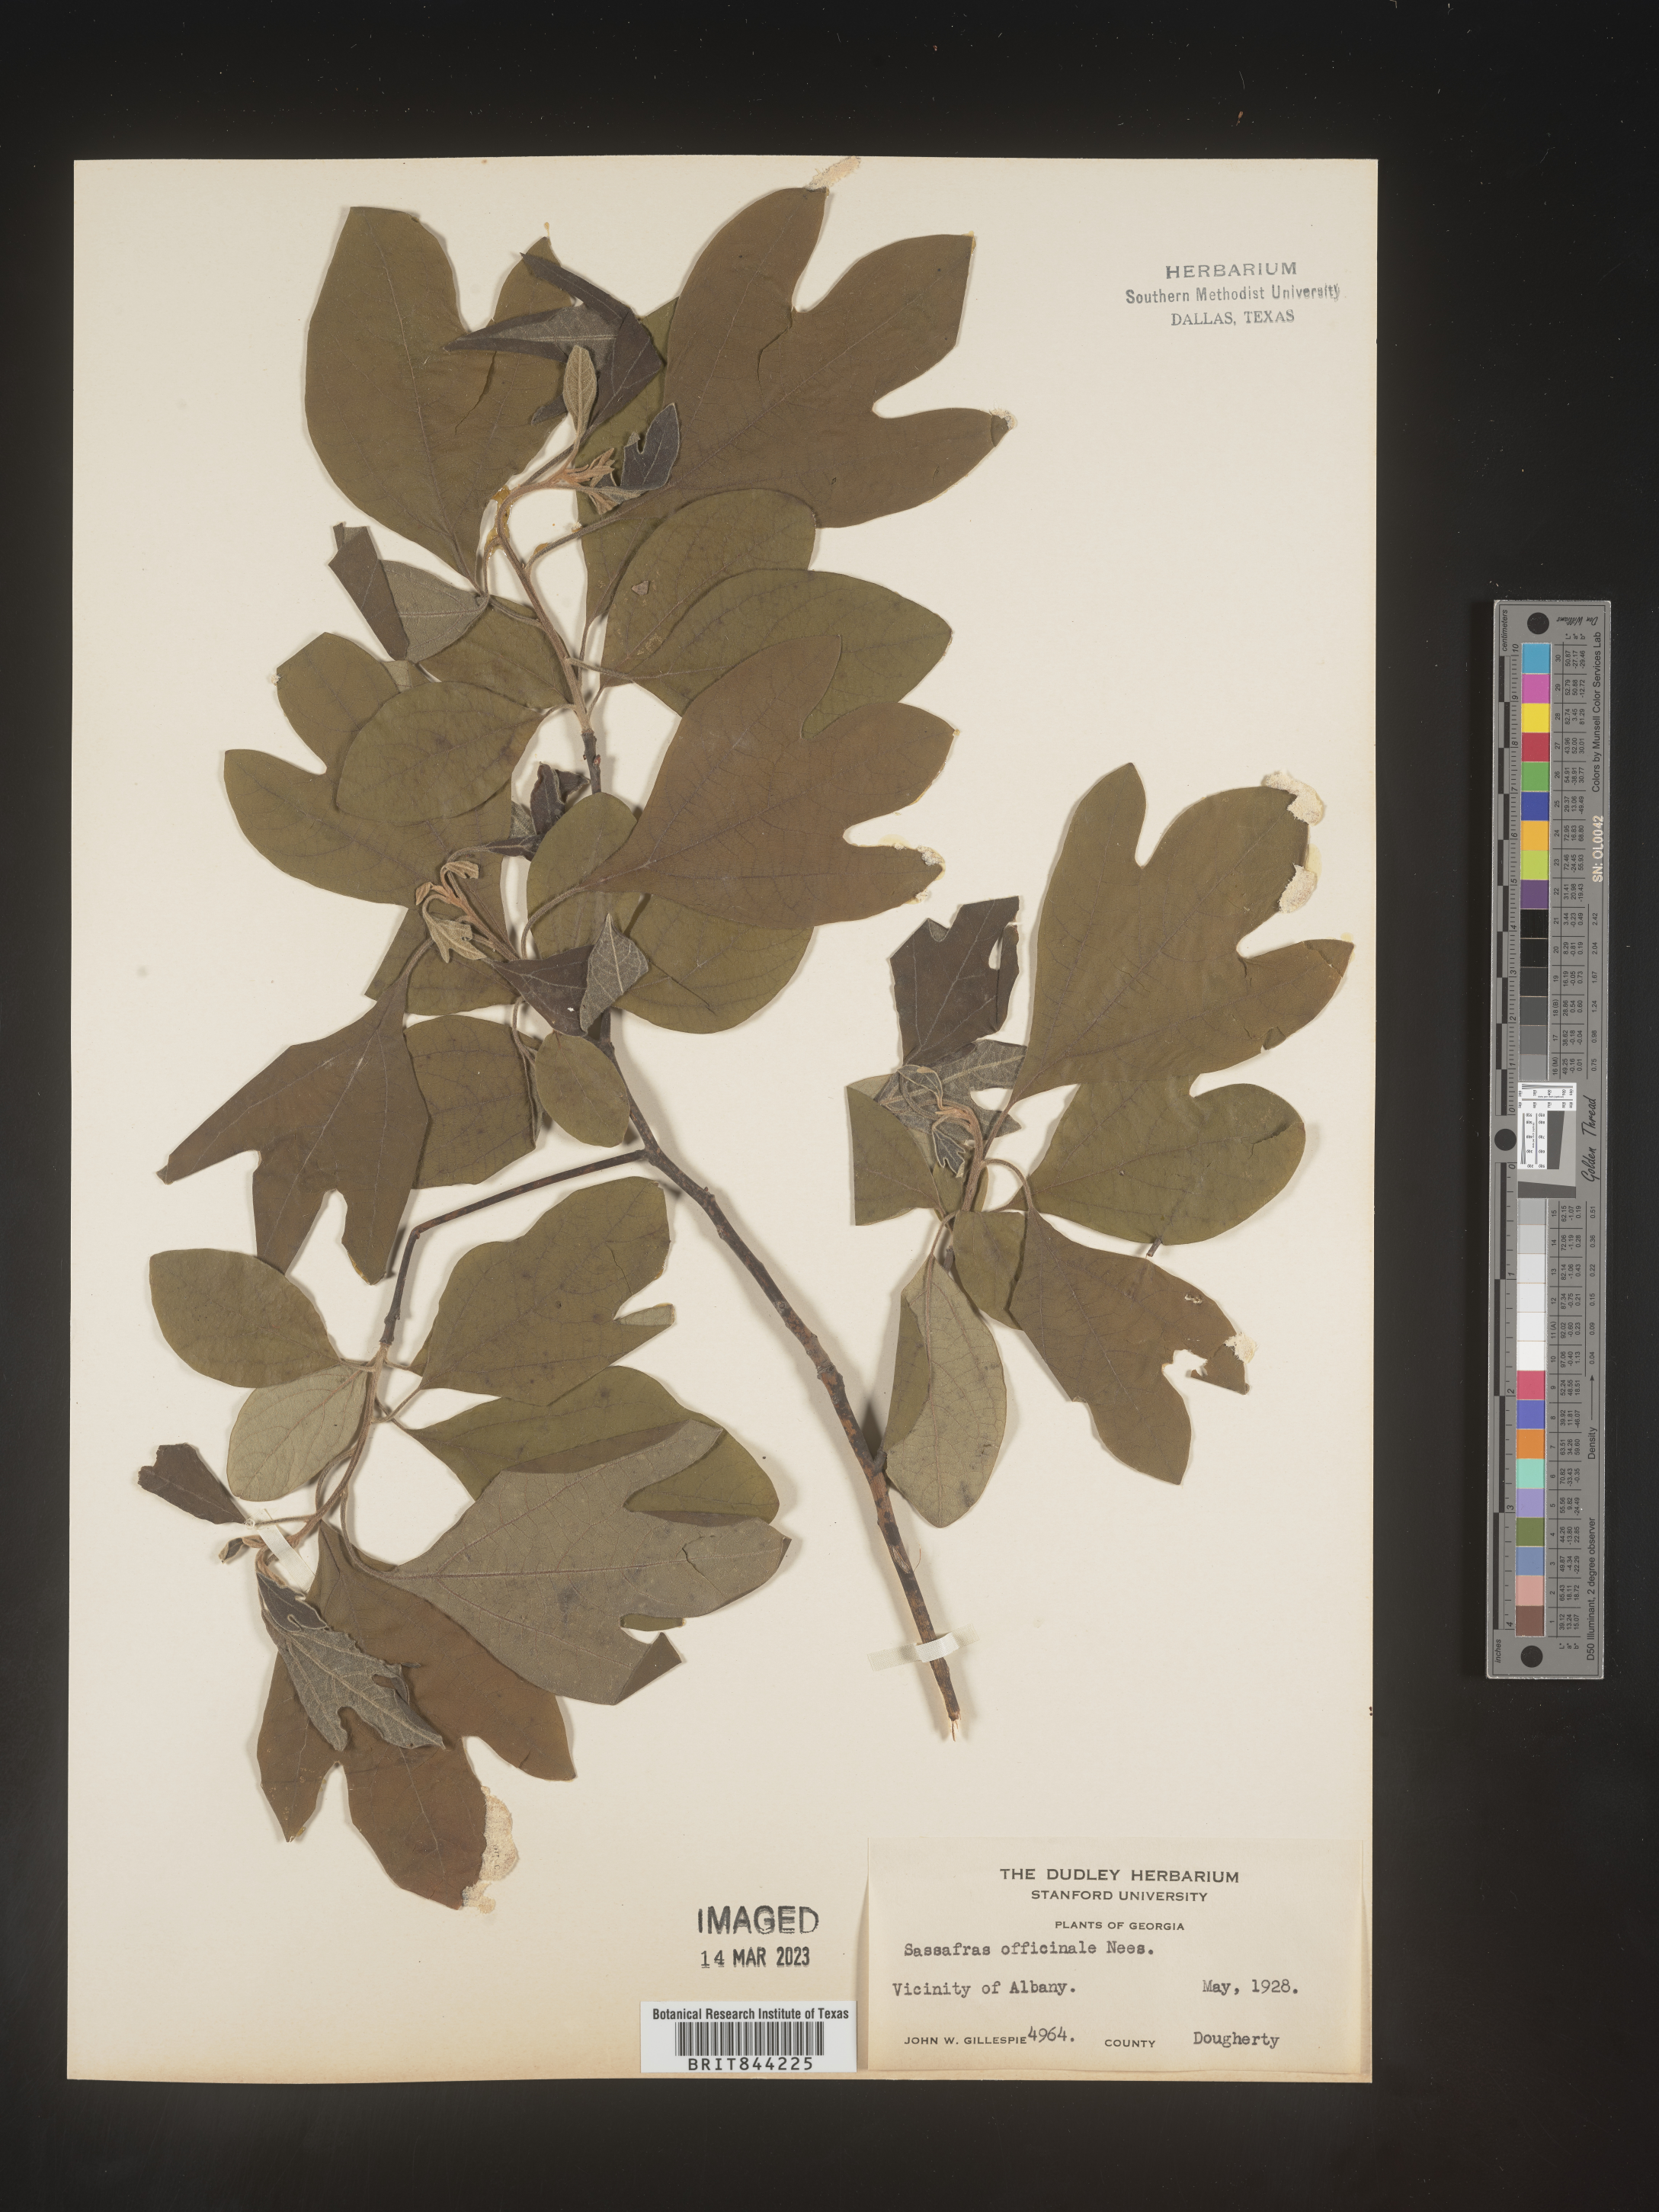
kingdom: Plantae
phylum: Tracheophyta
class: Magnoliopsida
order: Laurales
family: Lauraceae
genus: Sassafras
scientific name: Sassafras albidum
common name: Sassafras
